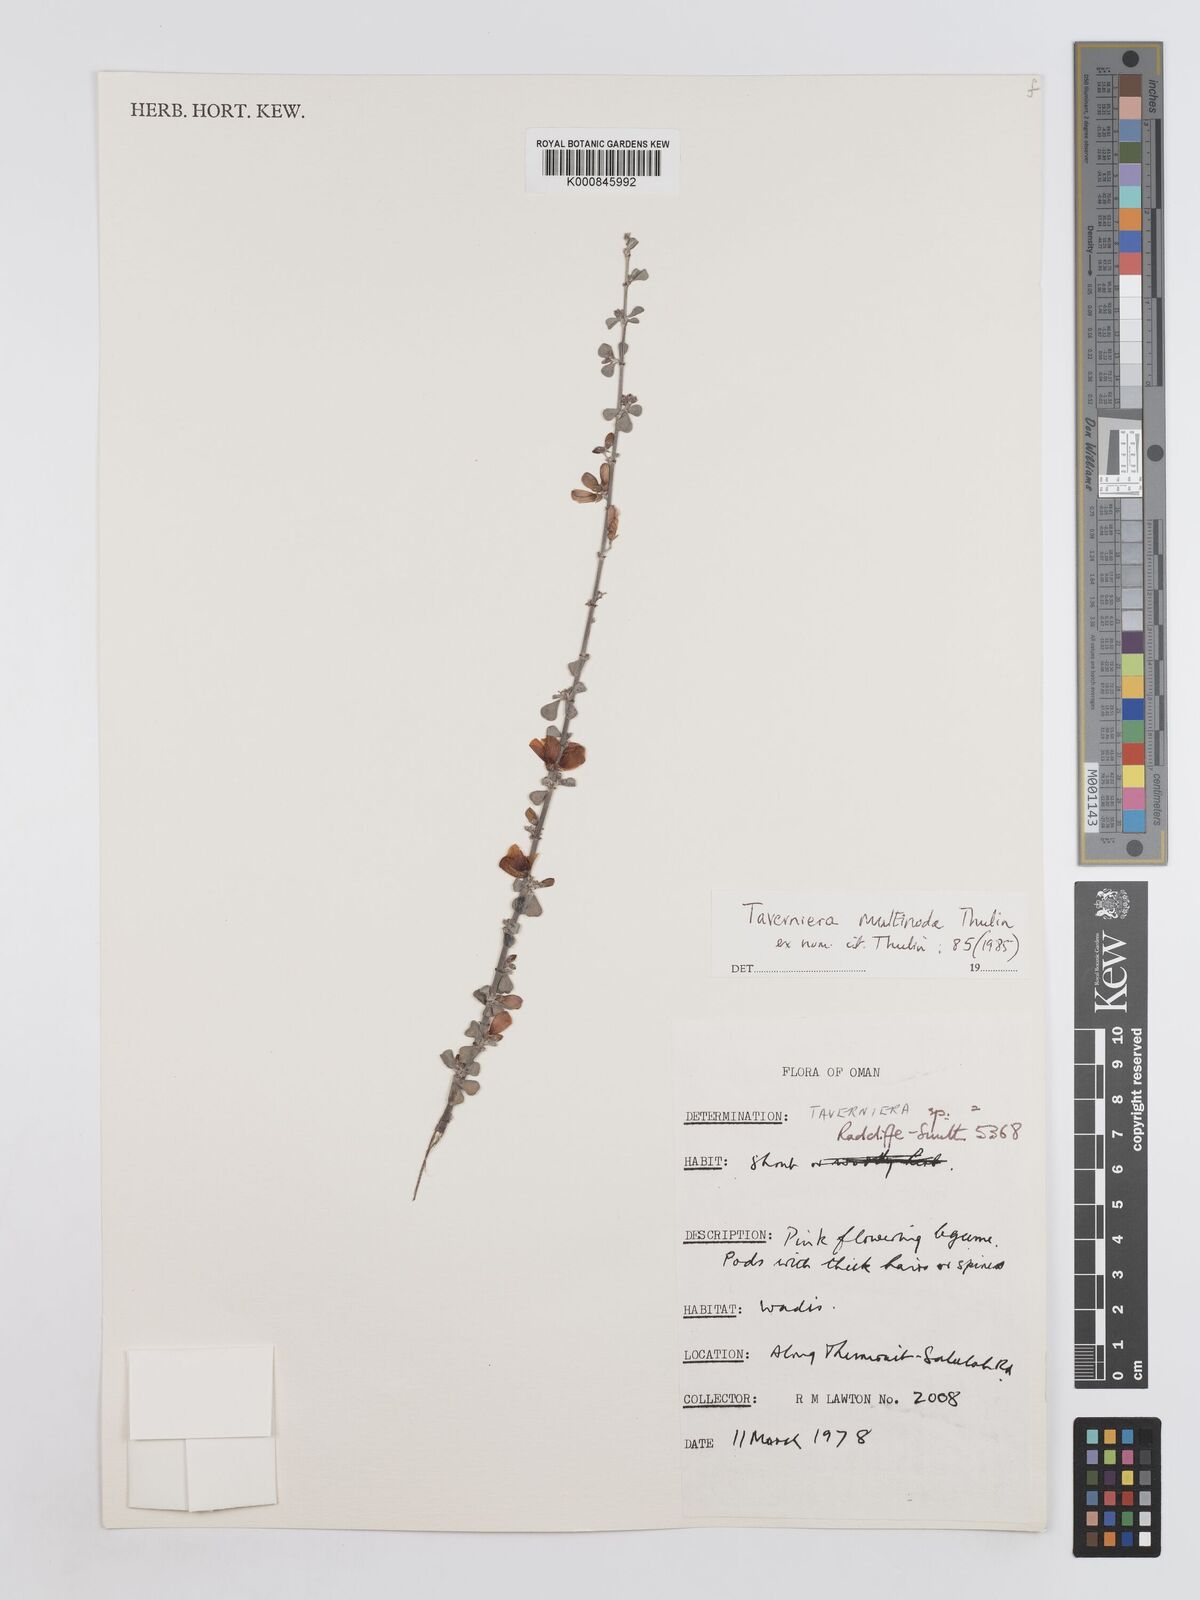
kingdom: Plantae
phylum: Tracheophyta
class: Magnoliopsida
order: Fabales
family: Fabaceae
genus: Taverniera
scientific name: Taverniera multinoda
